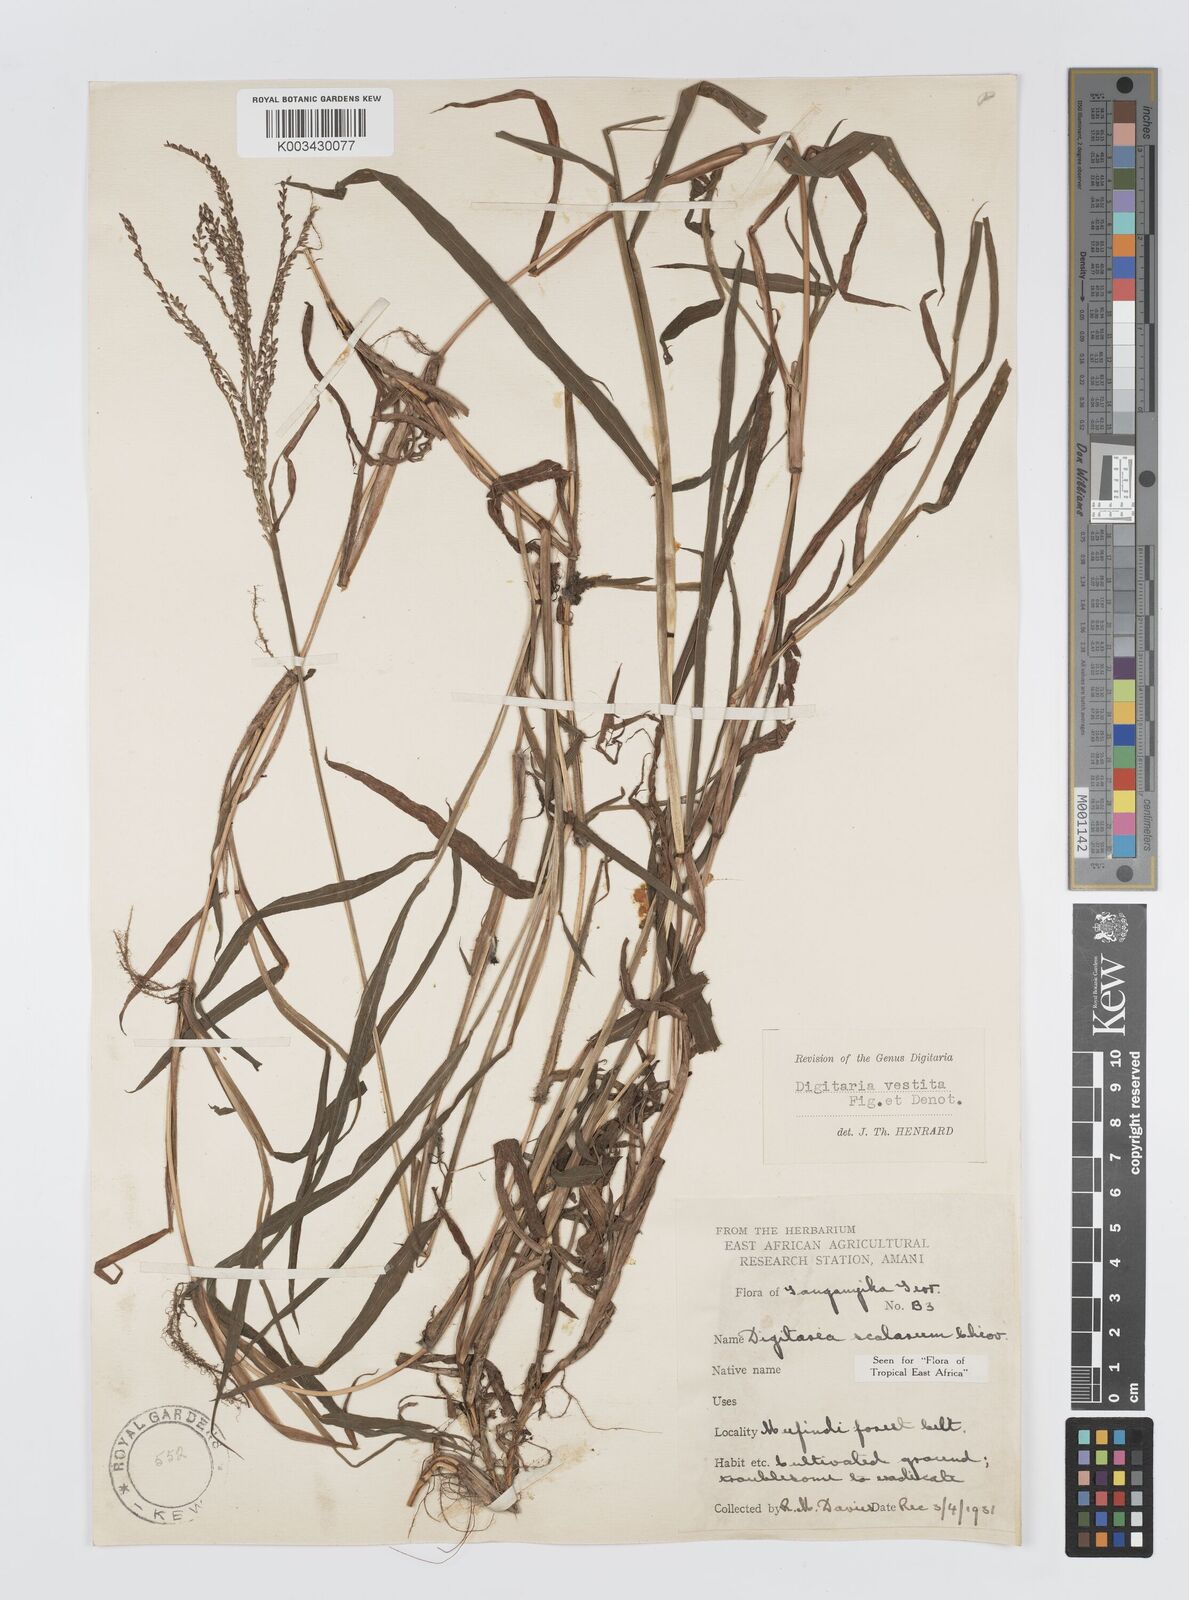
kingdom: Plantae
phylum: Tracheophyta
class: Liliopsida
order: Poales
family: Poaceae
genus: Digitaria
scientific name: Digitaria abyssinica
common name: African couchgrass
